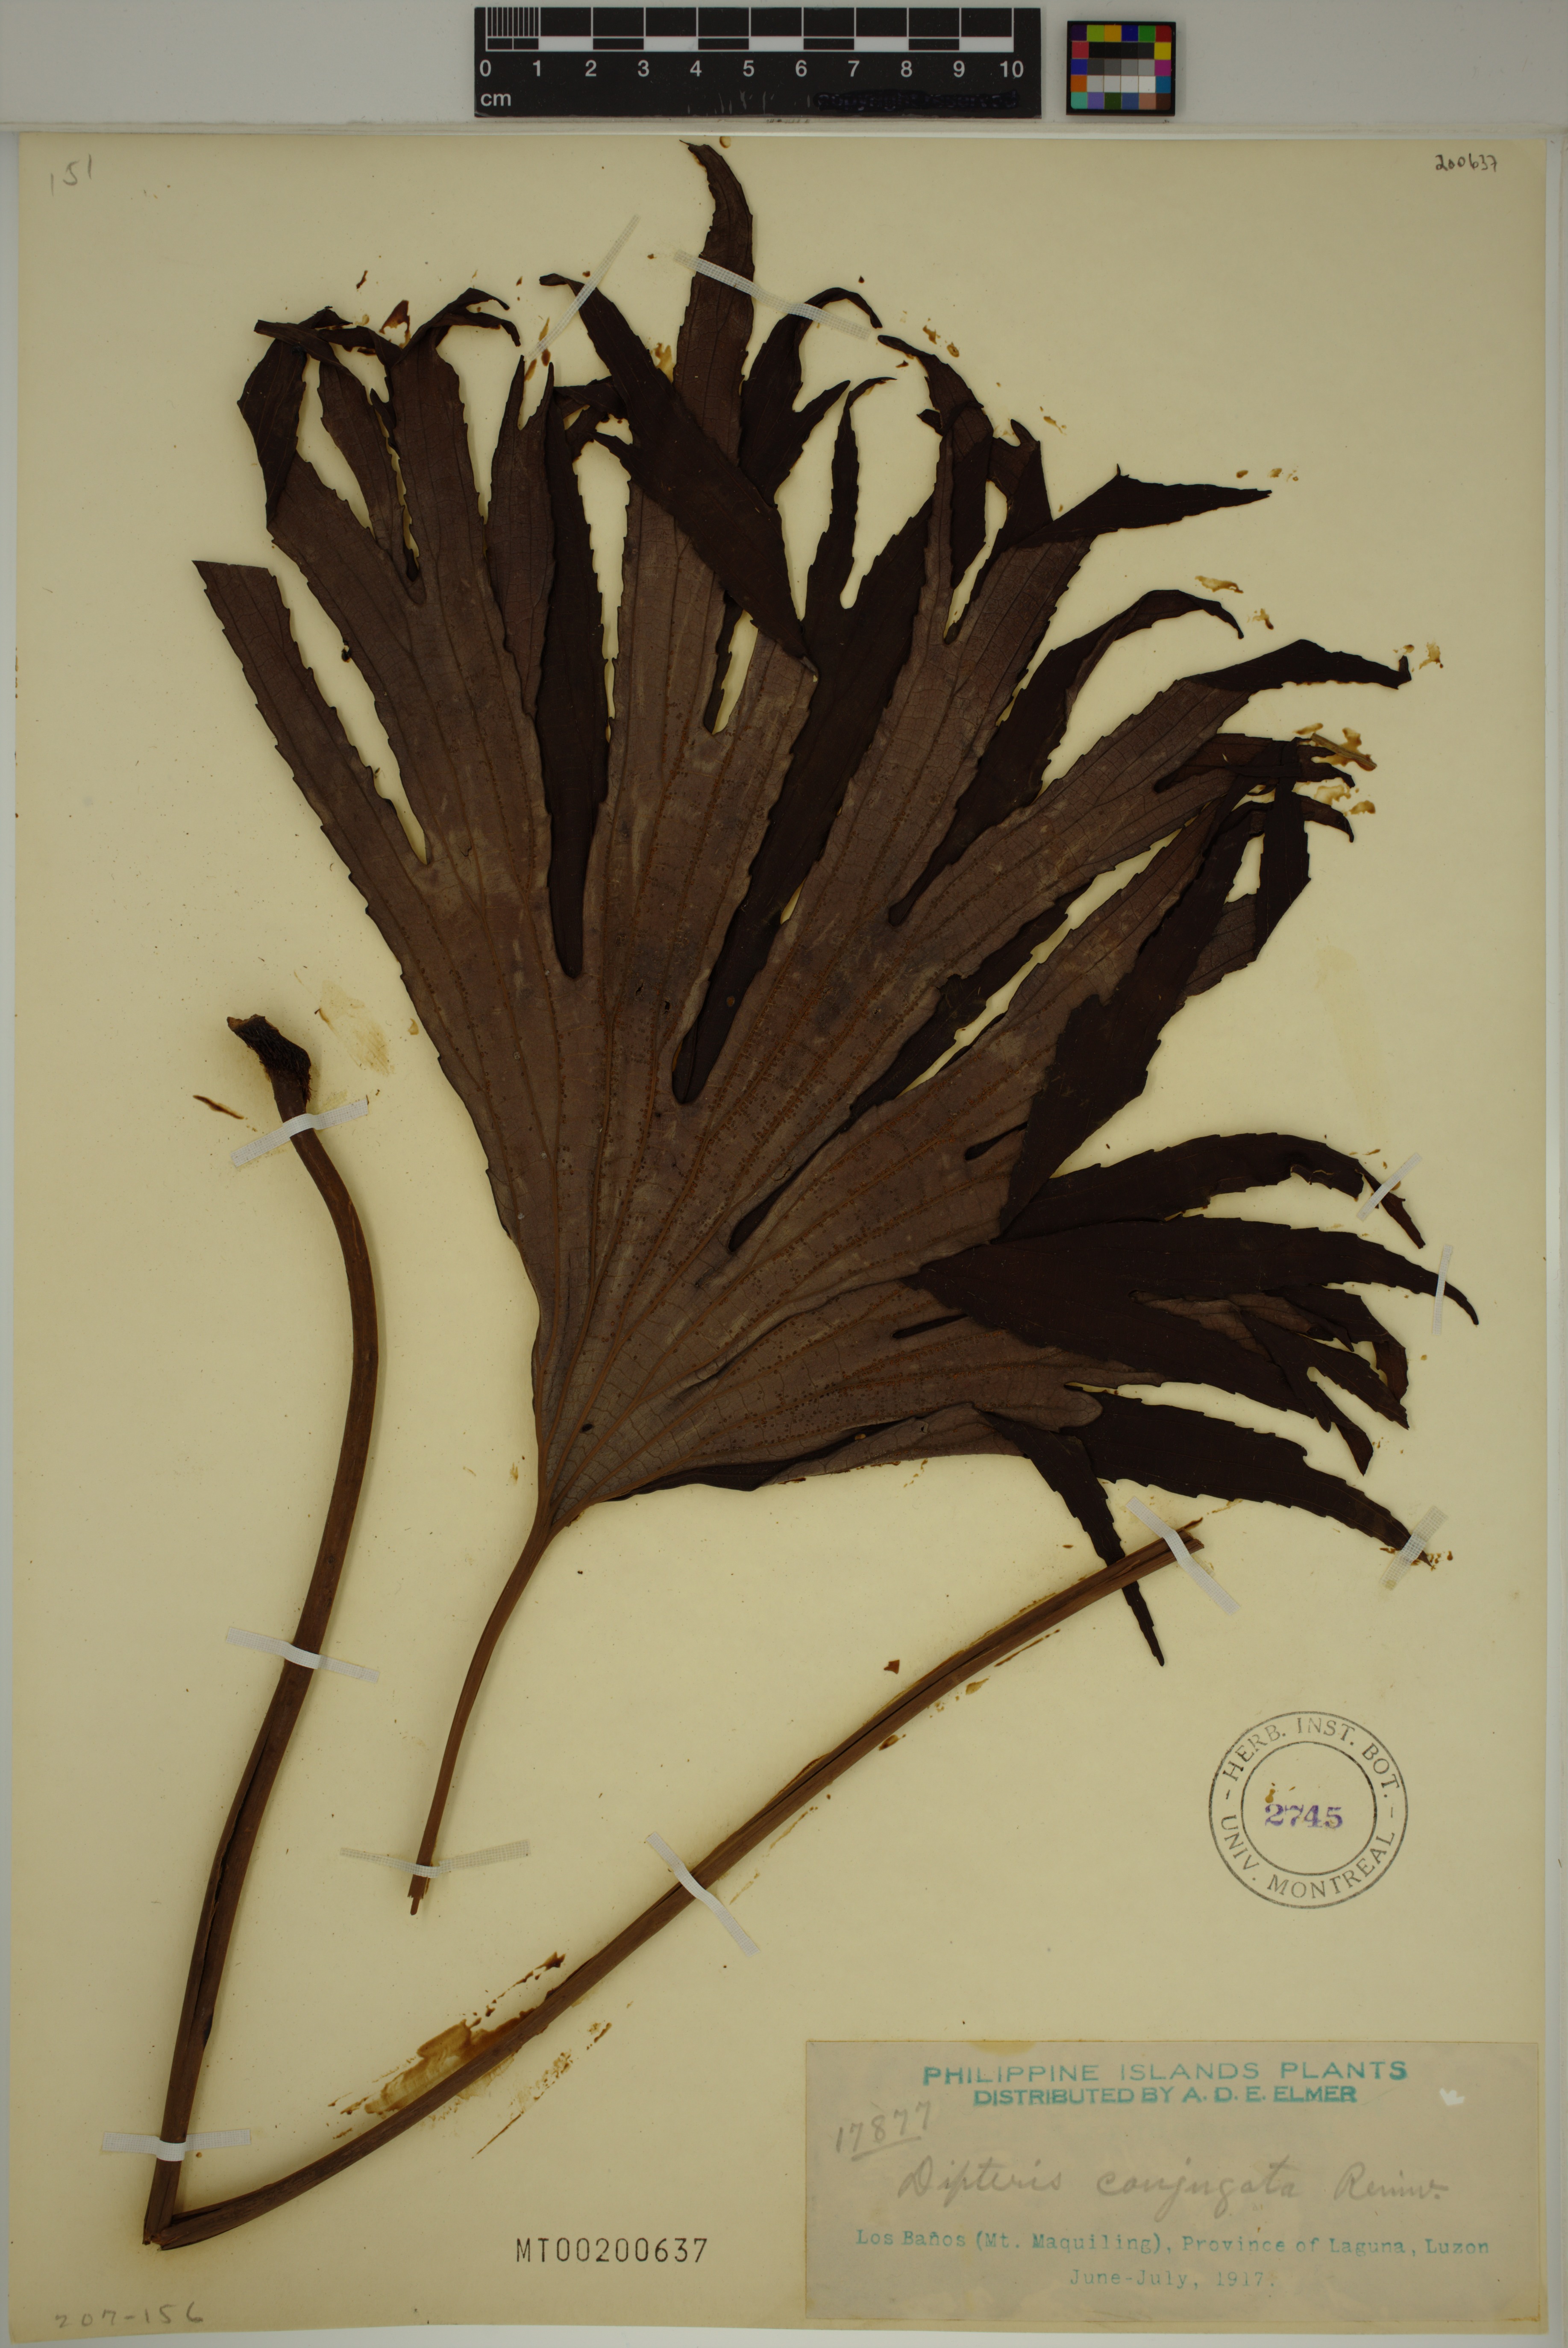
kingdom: Plantae
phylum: Tracheophyta
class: Polypodiopsida
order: Gleicheniales
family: Dipteridaceae
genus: Dipteris
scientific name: Dipteris conjugata
